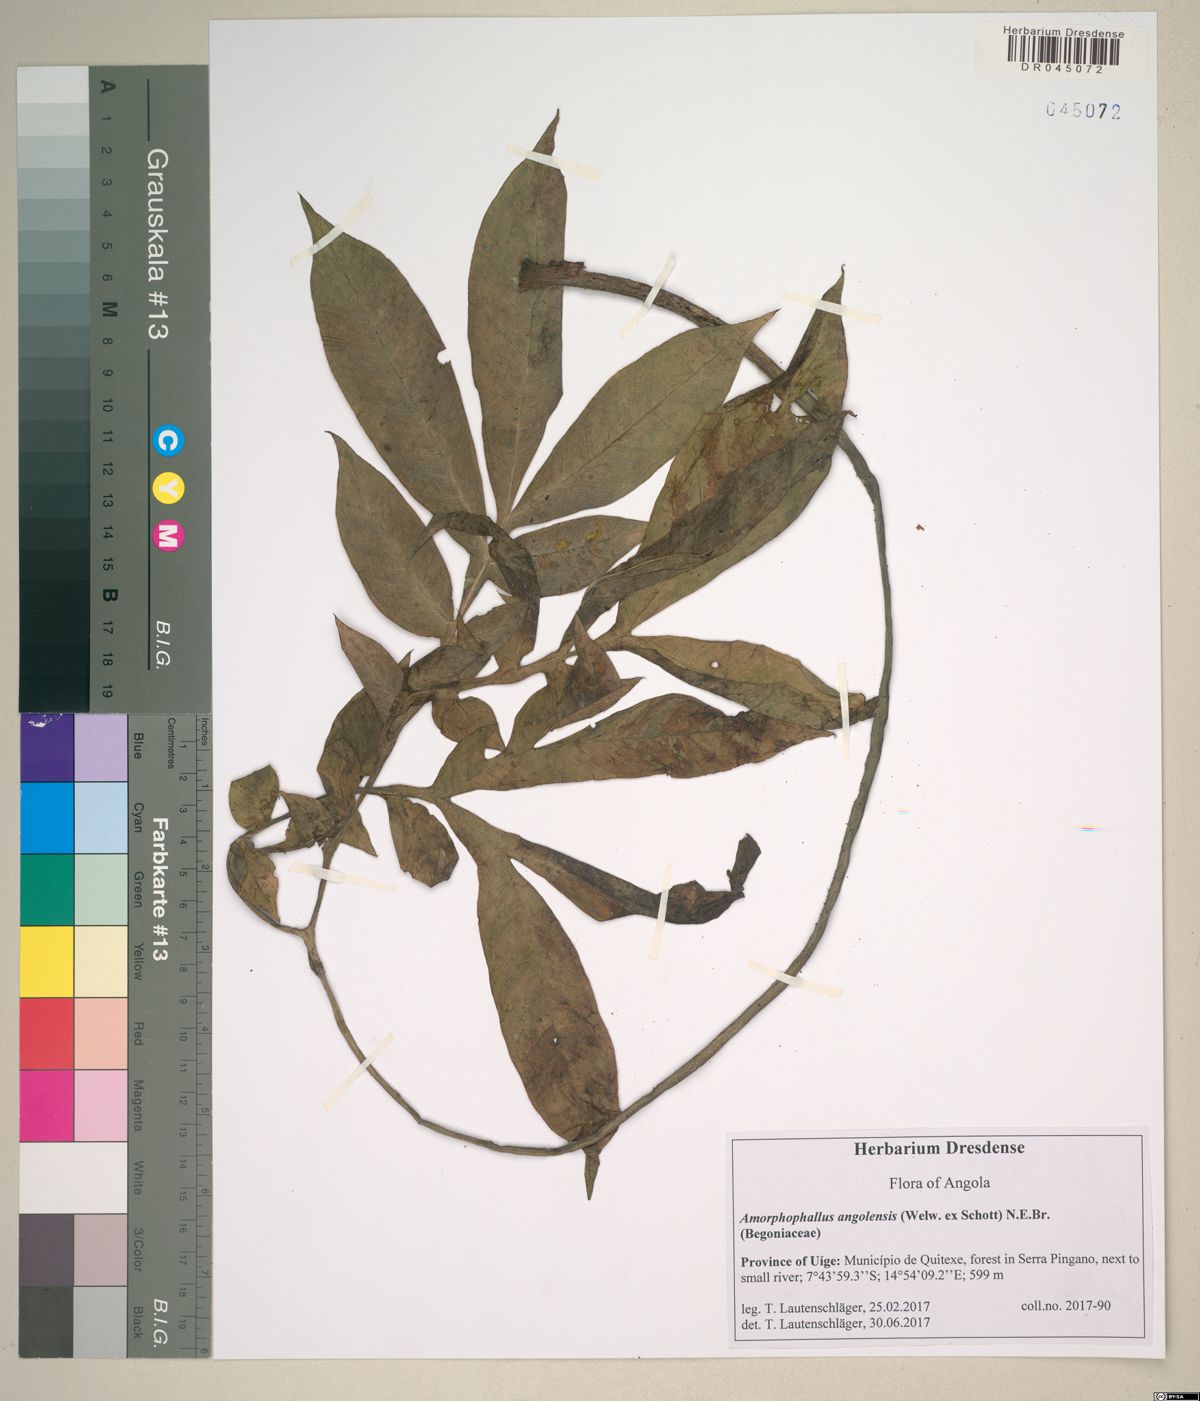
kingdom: Plantae
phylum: Tracheophyta
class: Liliopsida
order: Alismatales
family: Araceae
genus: Amorphophallus
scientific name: Amorphophallus angolensis
